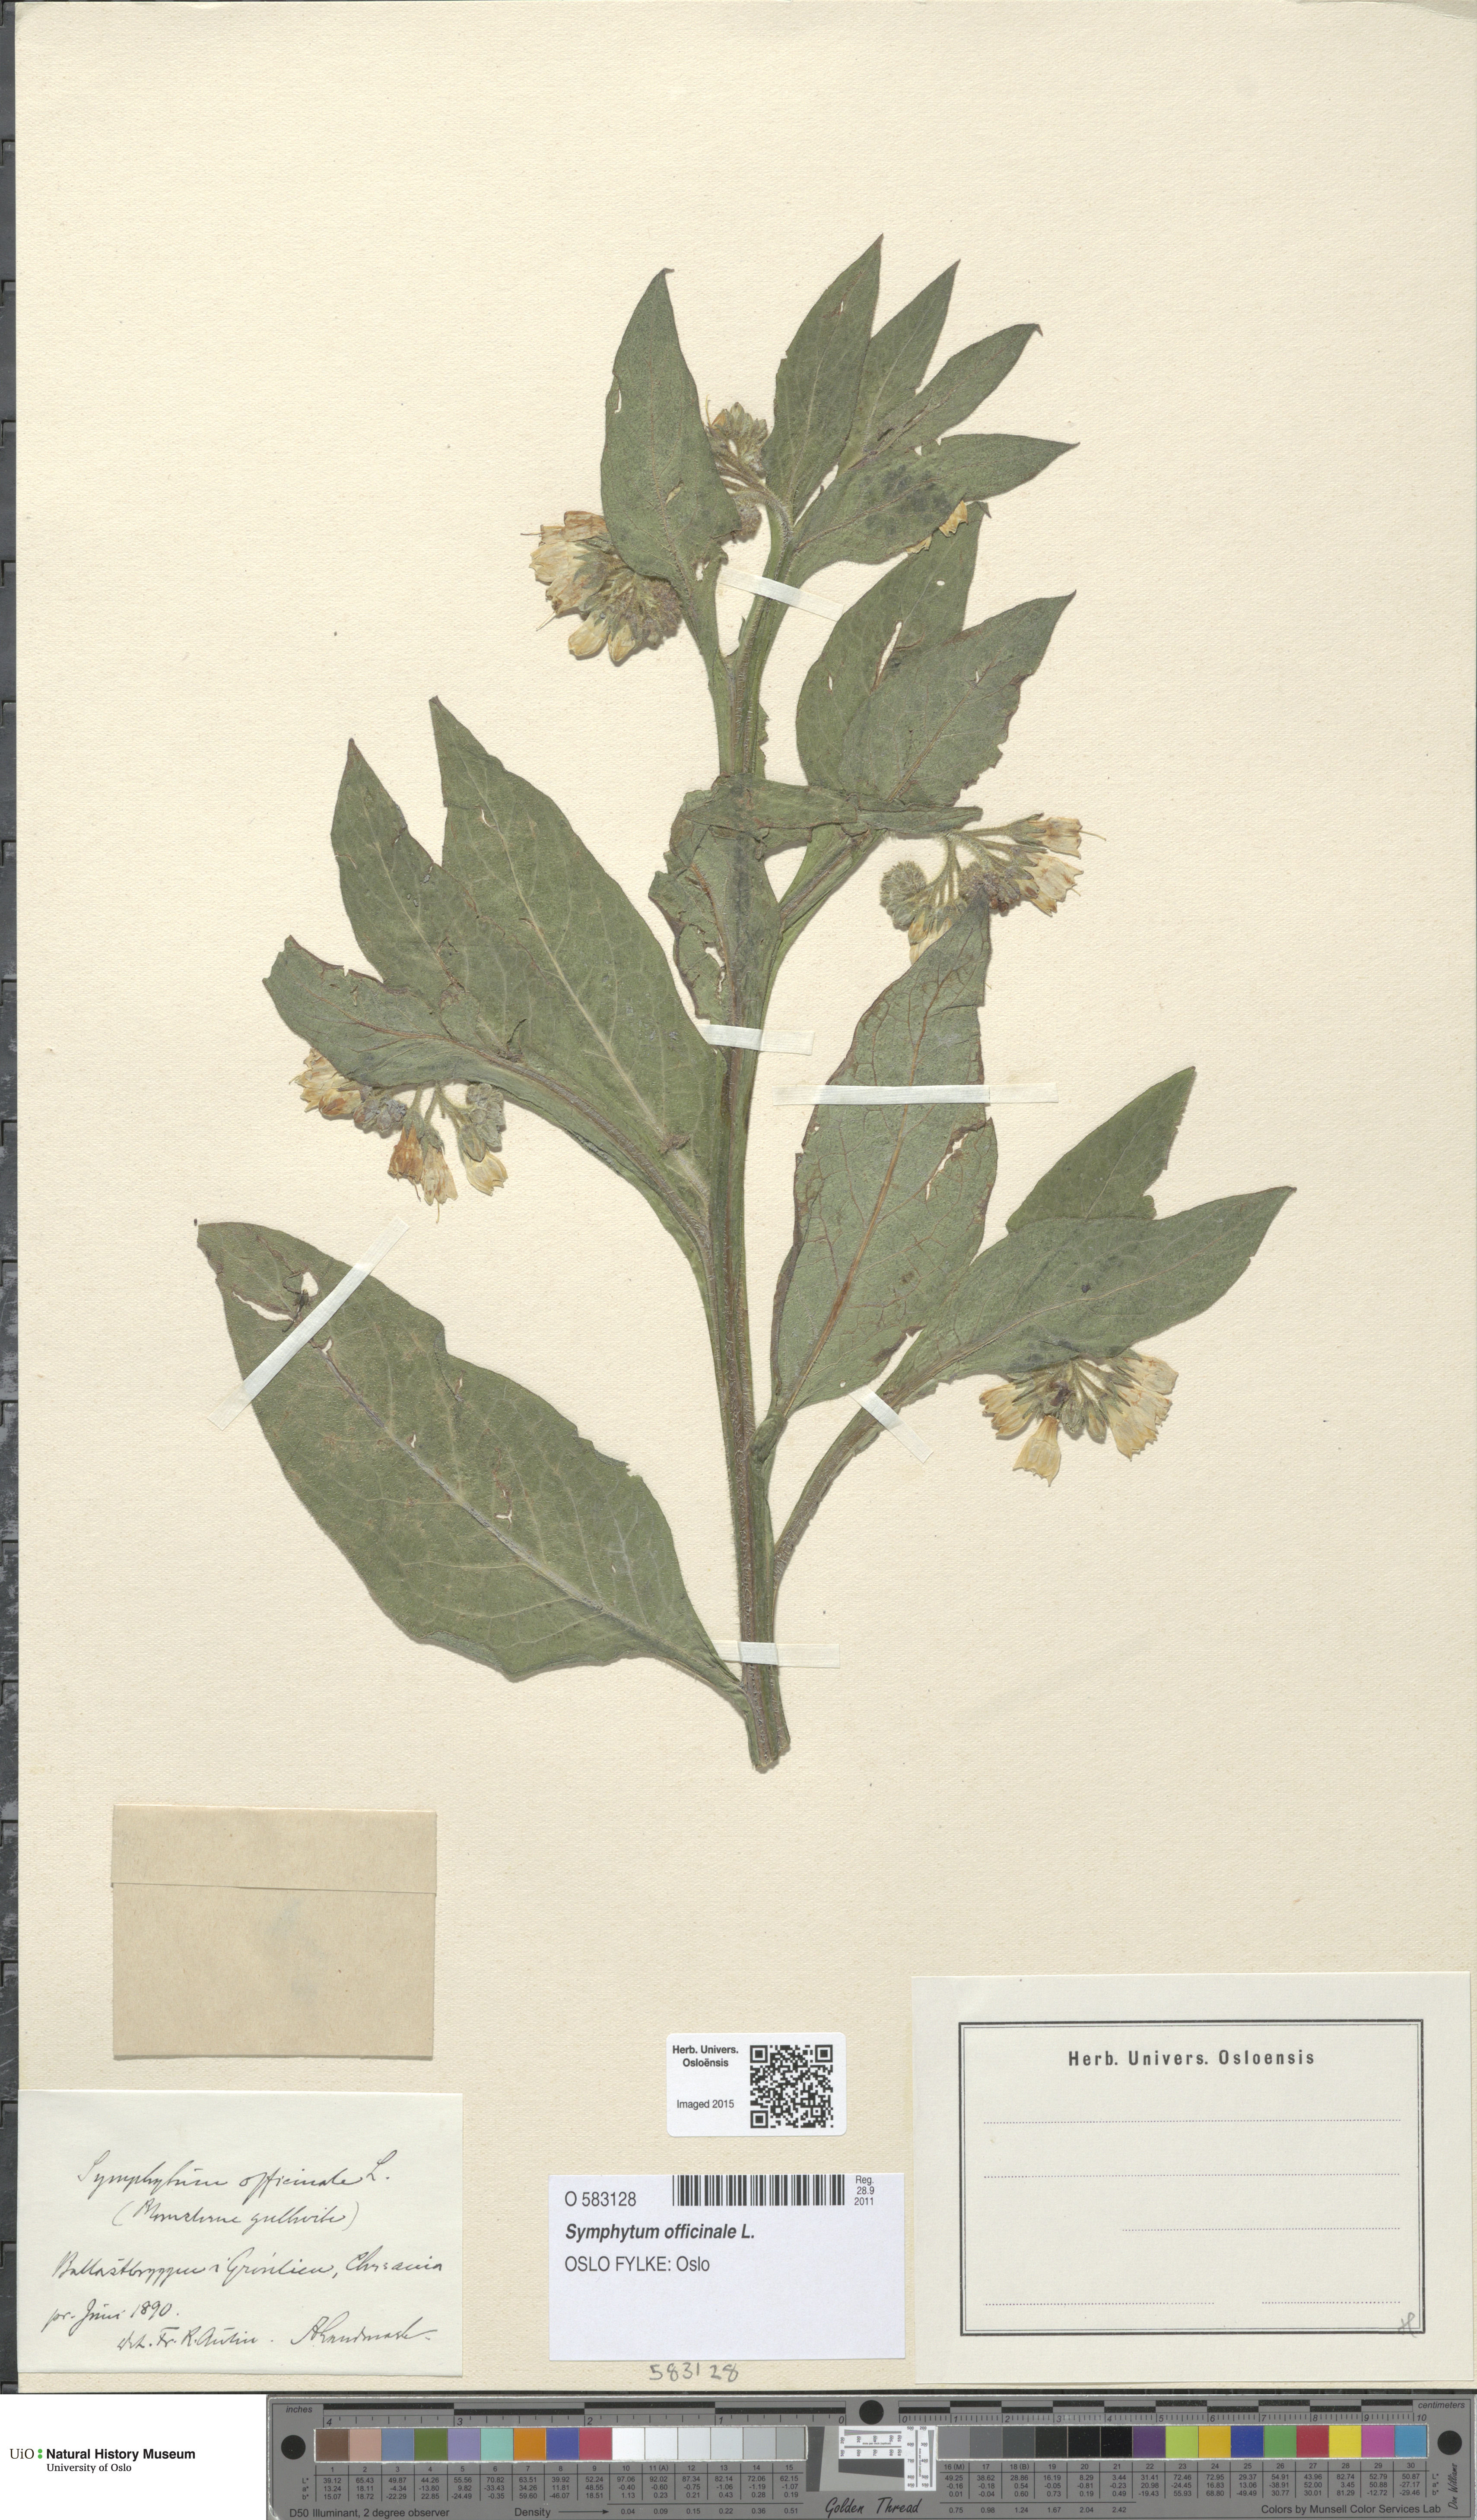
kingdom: Plantae
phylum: Tracheophyta
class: Magnoliopsida
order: Boraginales
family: Boraginaceae
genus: Symphytum
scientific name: Symphytum officinale
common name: Common comfrey
